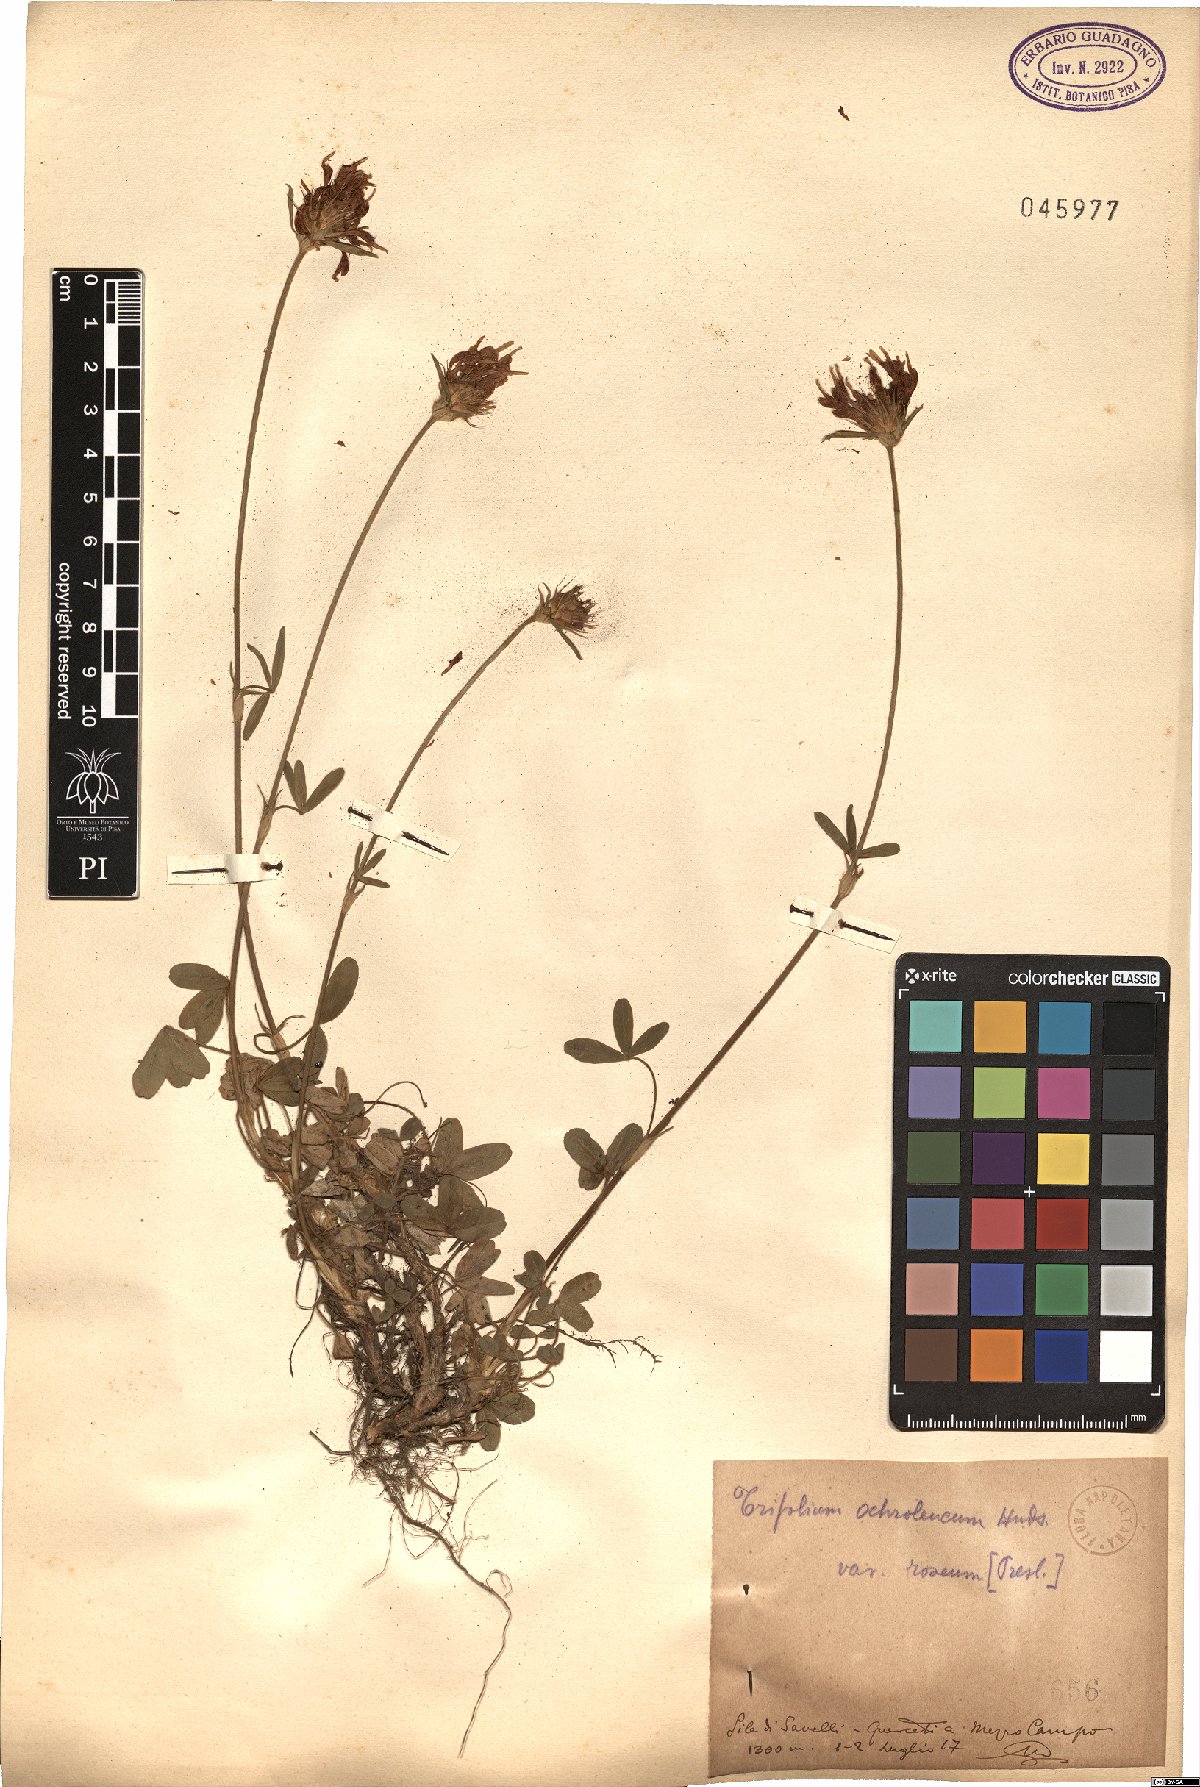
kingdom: Plantae
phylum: Tracheophyta
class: Magnoliopsida
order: Fabales
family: Fabaceae
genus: Trifolium
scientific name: Trifolium ochroleucon
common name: Sulphur clover
